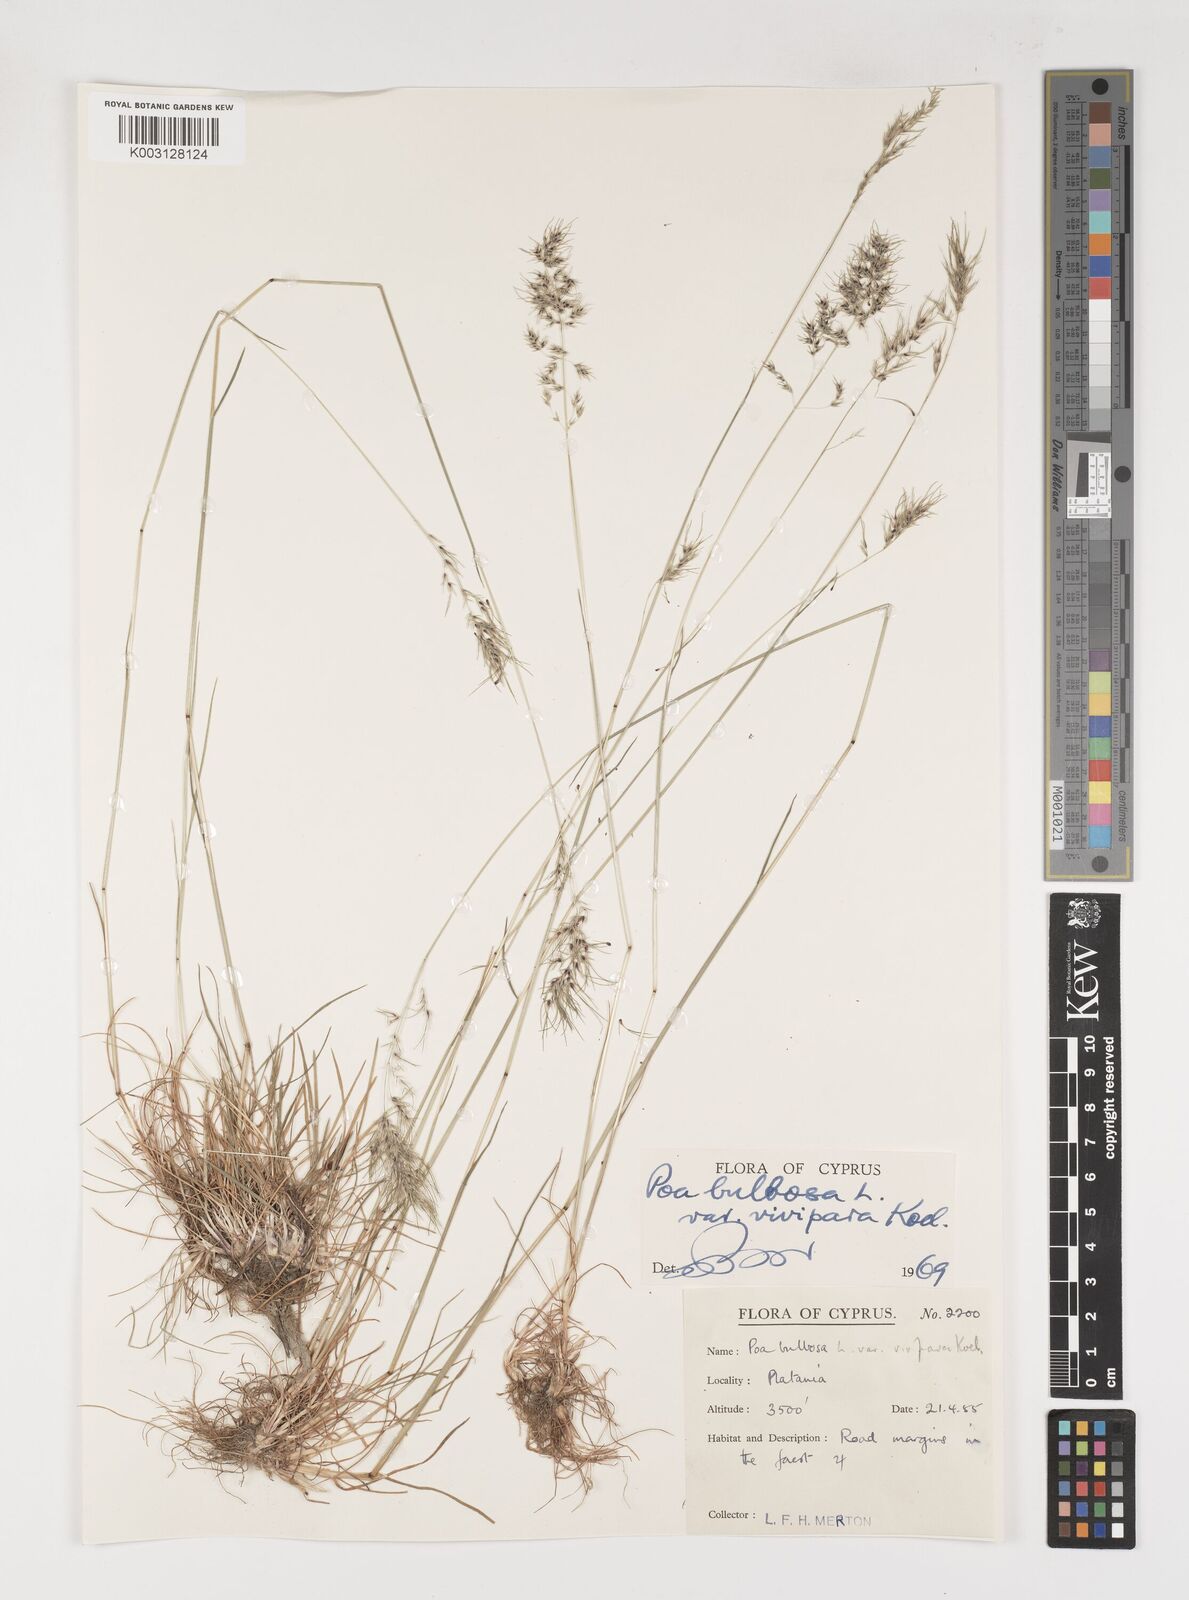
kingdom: Plantae
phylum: Tracheophyta
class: Liliopsida
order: Poales
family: Poaceae
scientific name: Poaceae
